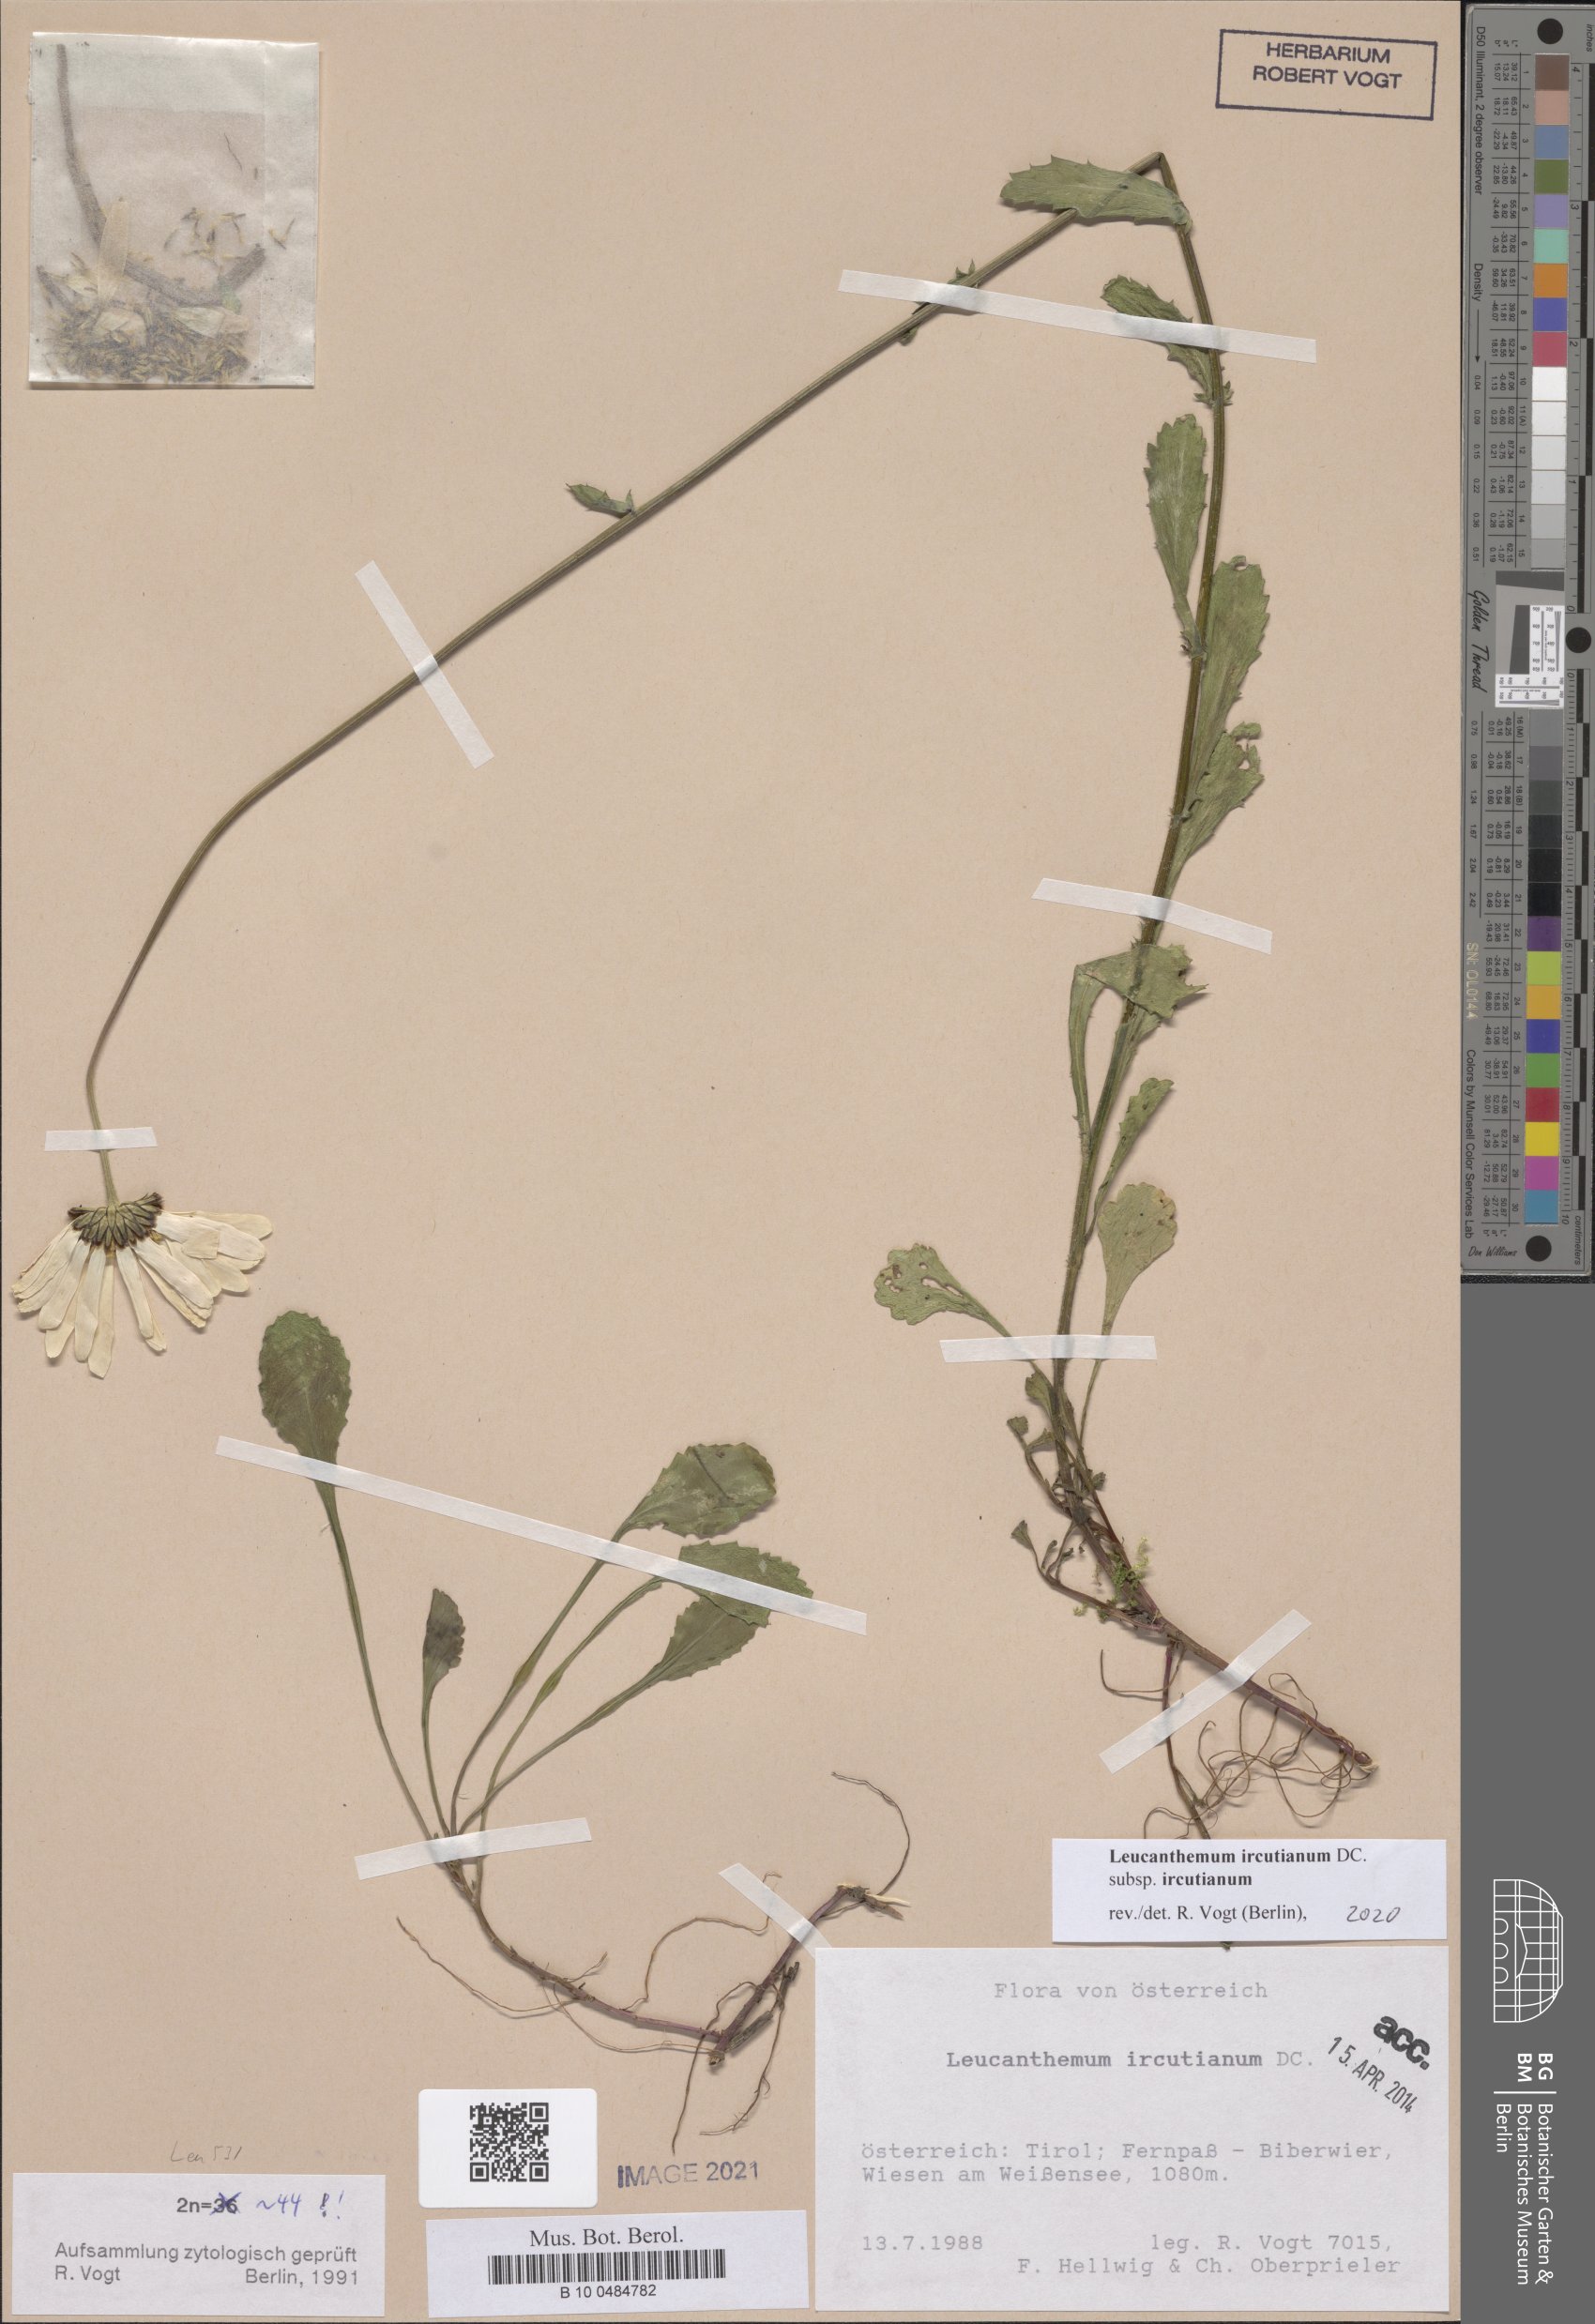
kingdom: Plantae
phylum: Tracheophyta
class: Magnoliopsida
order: Asterales
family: Asteraceae
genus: Leucanthemum
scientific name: Leucanthemum ircutianum
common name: Daisy
